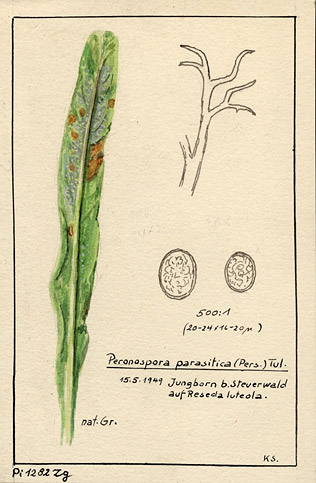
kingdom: Plantae
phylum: Tracheophyta
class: Magnoliopsida
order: Brassicales
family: Resedaceae
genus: Reseda
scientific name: Reseda luteola
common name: Weld
